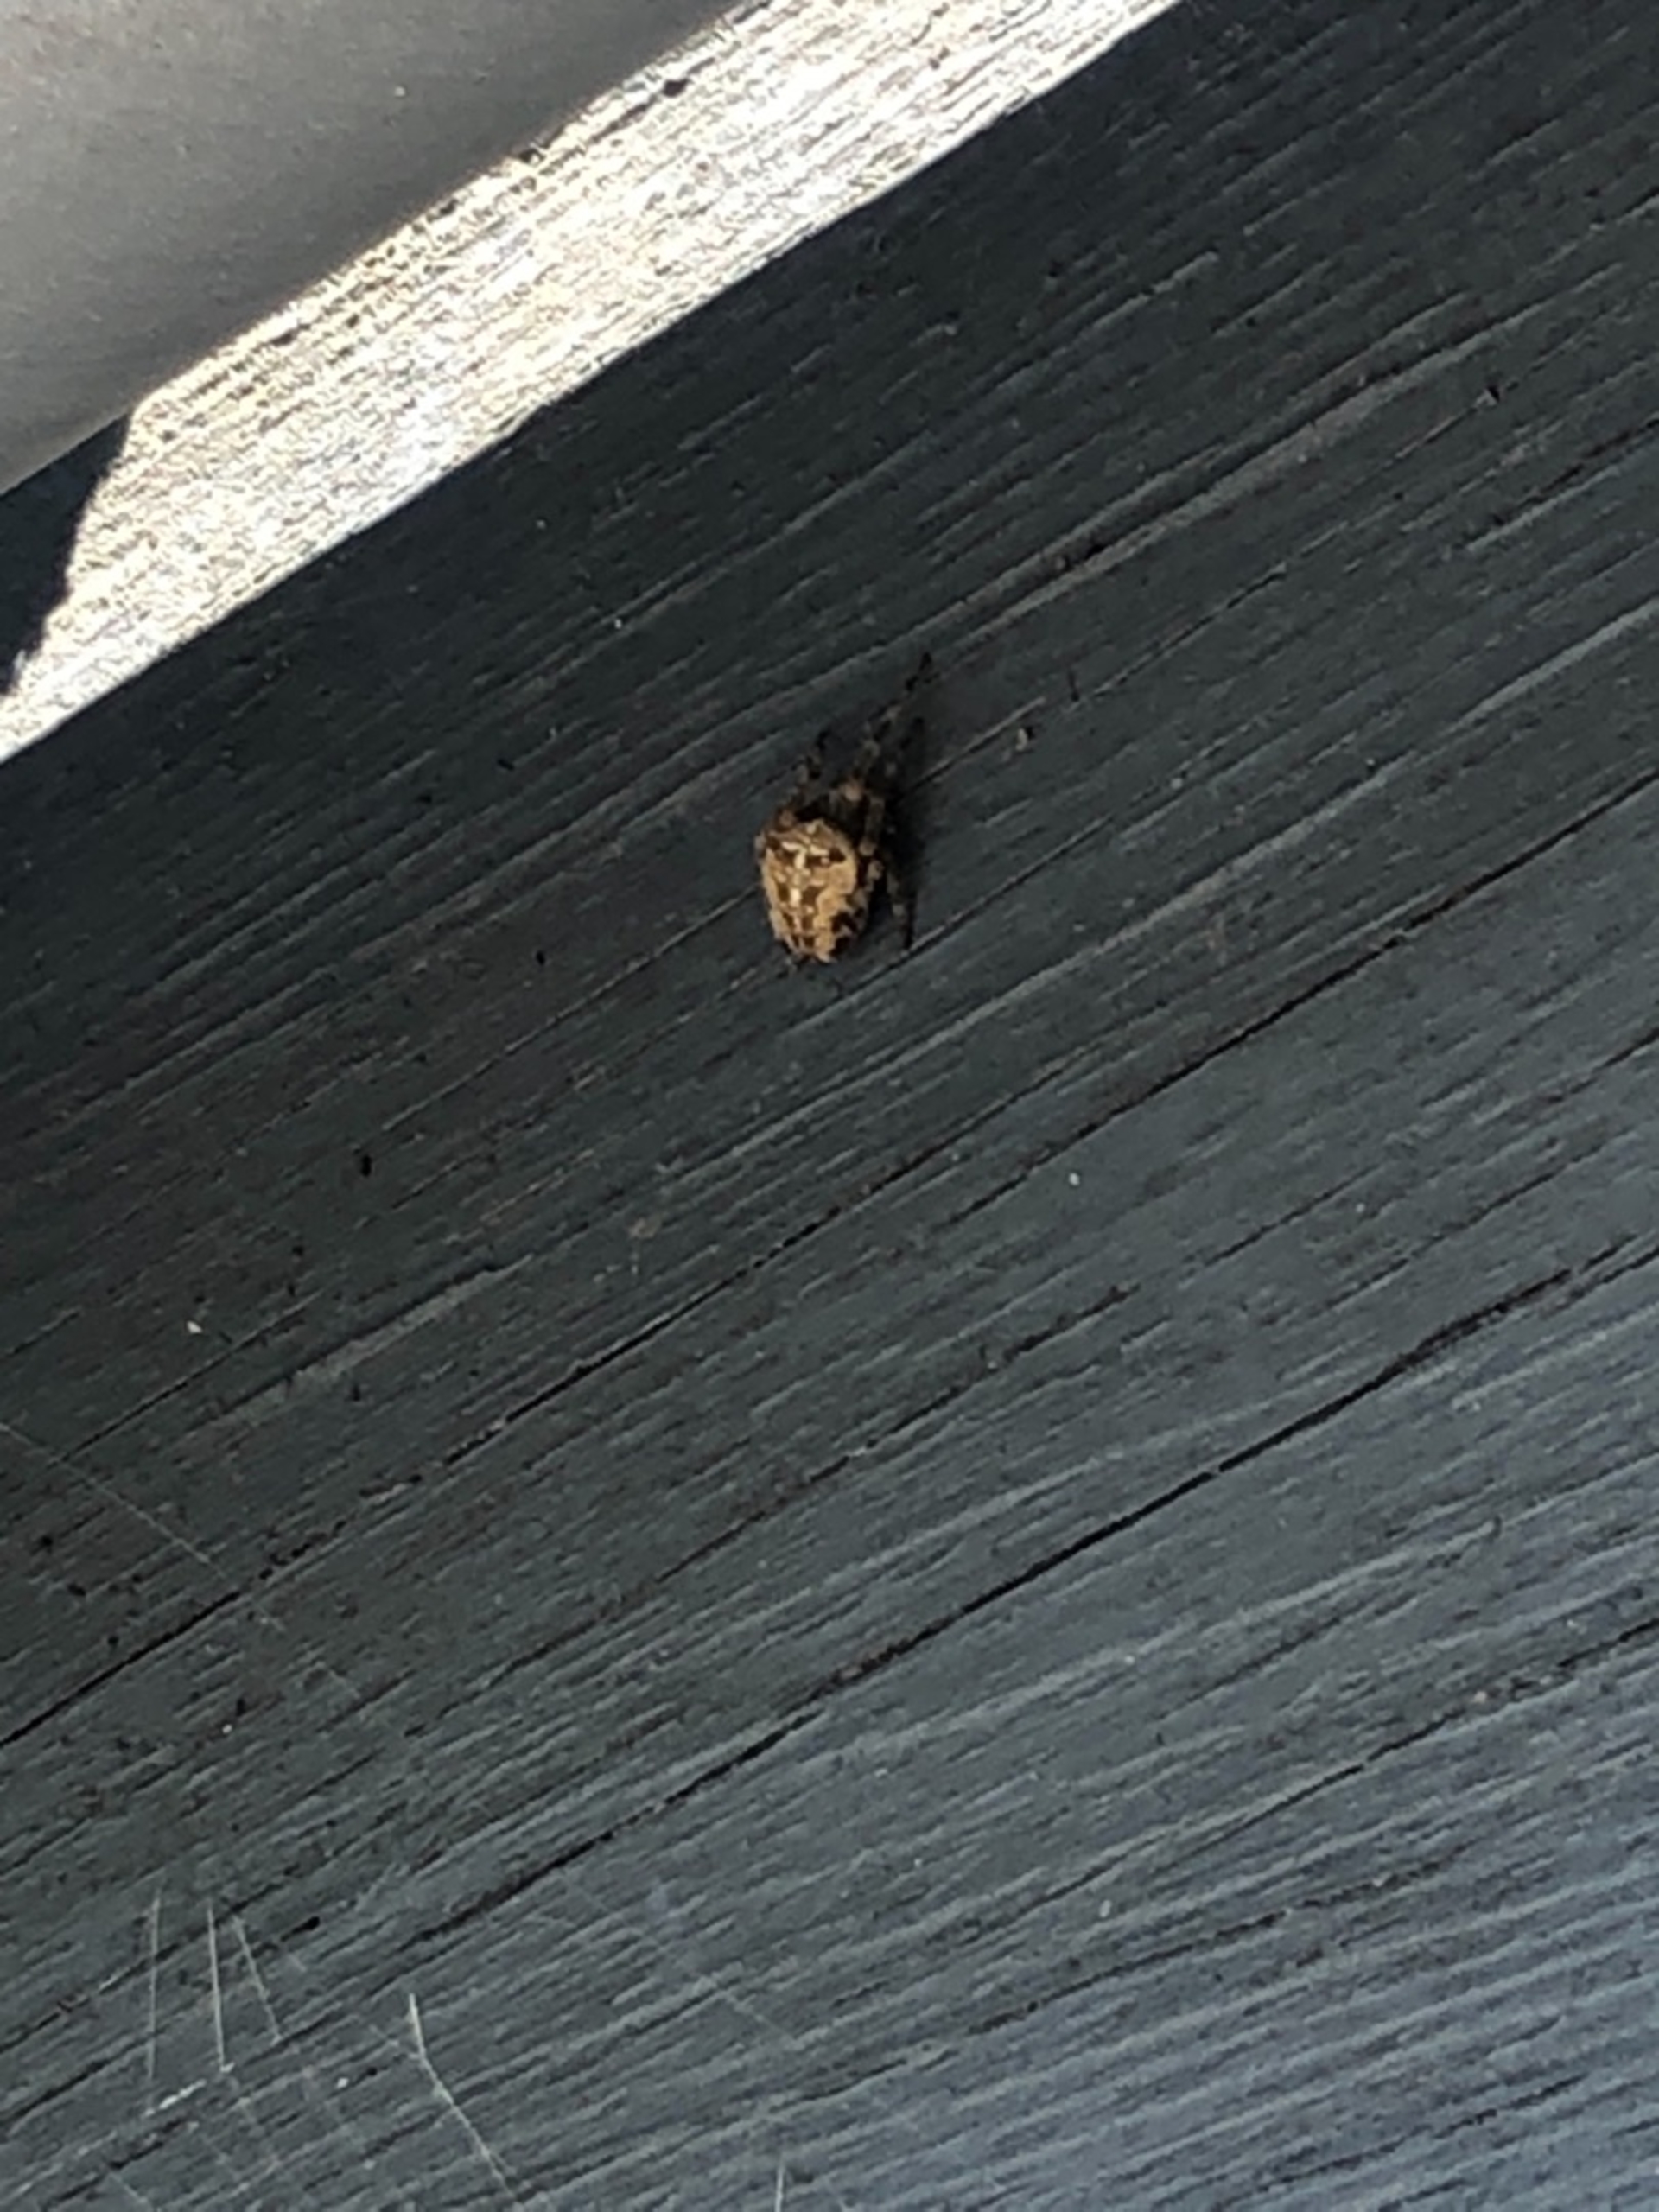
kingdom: Animalia
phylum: Arthropoda
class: Arachnida
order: Araneae
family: Araneidae
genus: Araneus
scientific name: Araneus diadematus
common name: Korsedderkop
